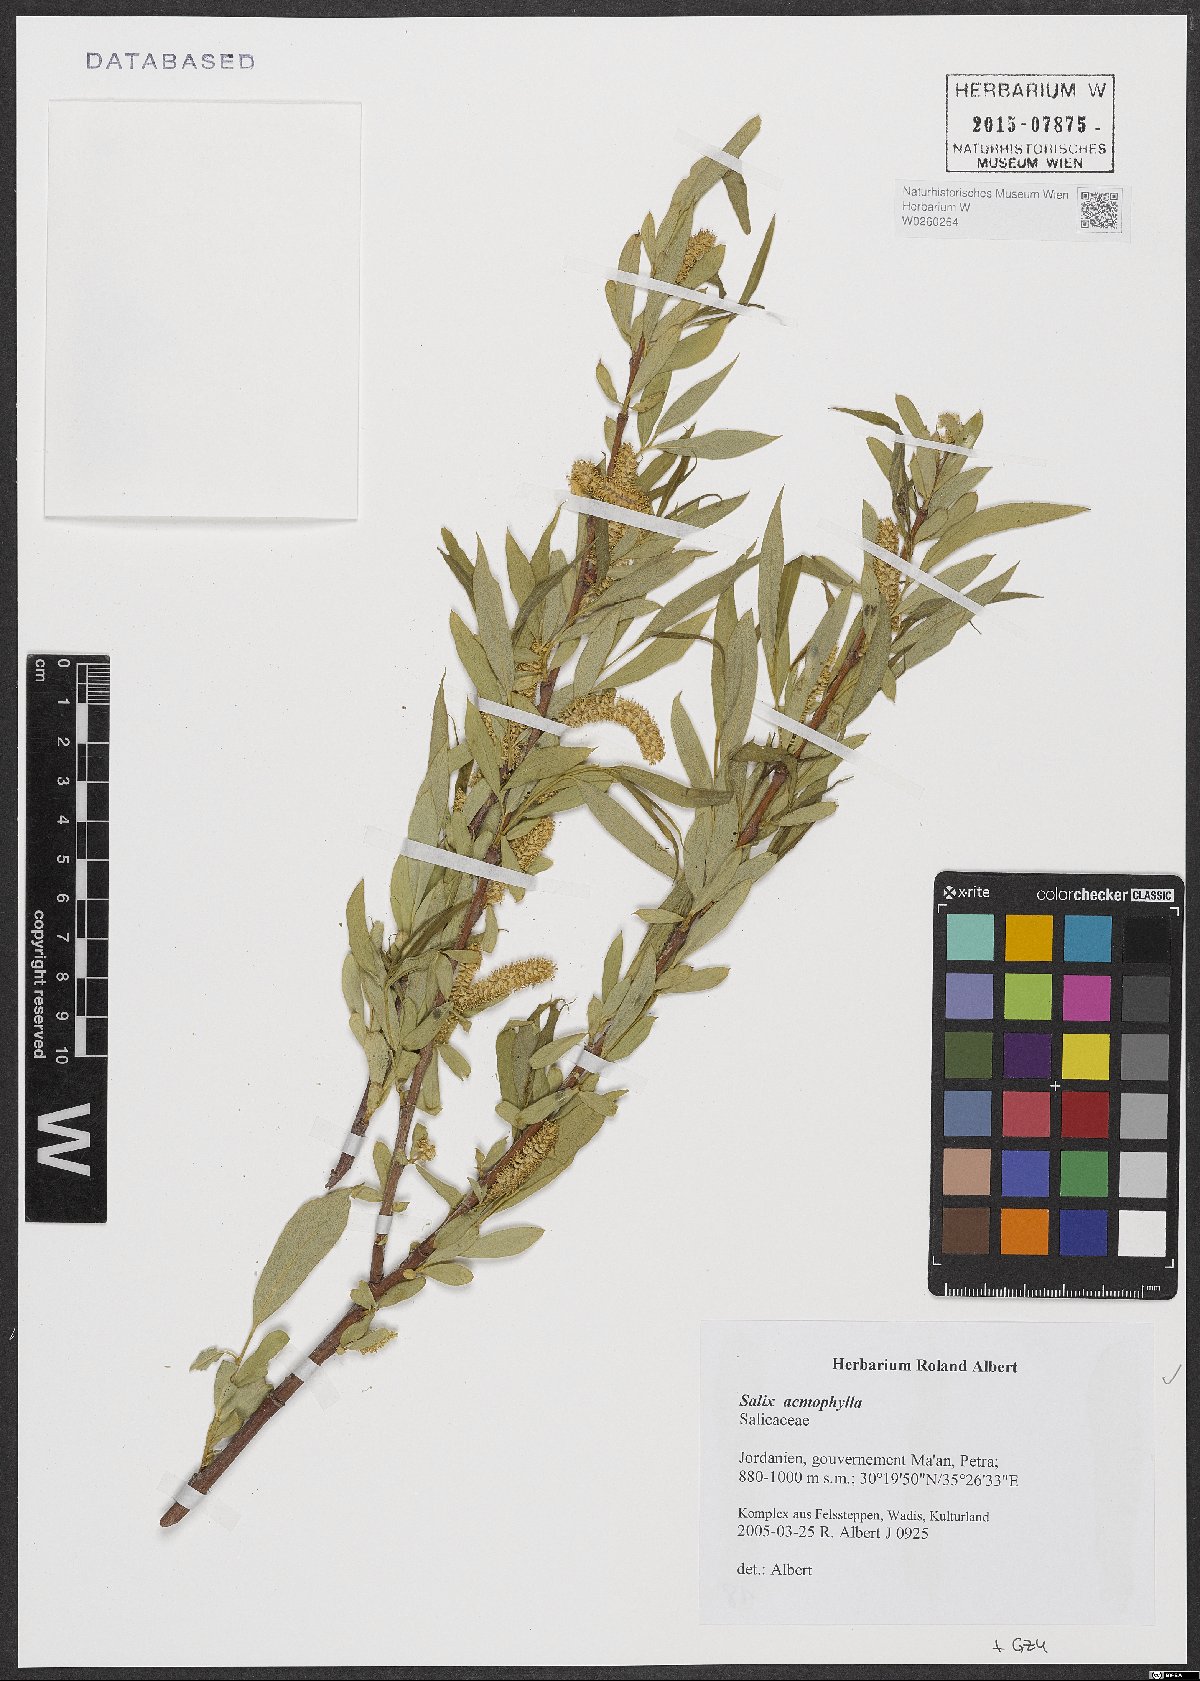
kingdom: Plantae
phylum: Tracheophyta
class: Magnoliopsida
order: Malpighiales
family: Salicaceae
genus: Salix
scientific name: Salix acmophylla
